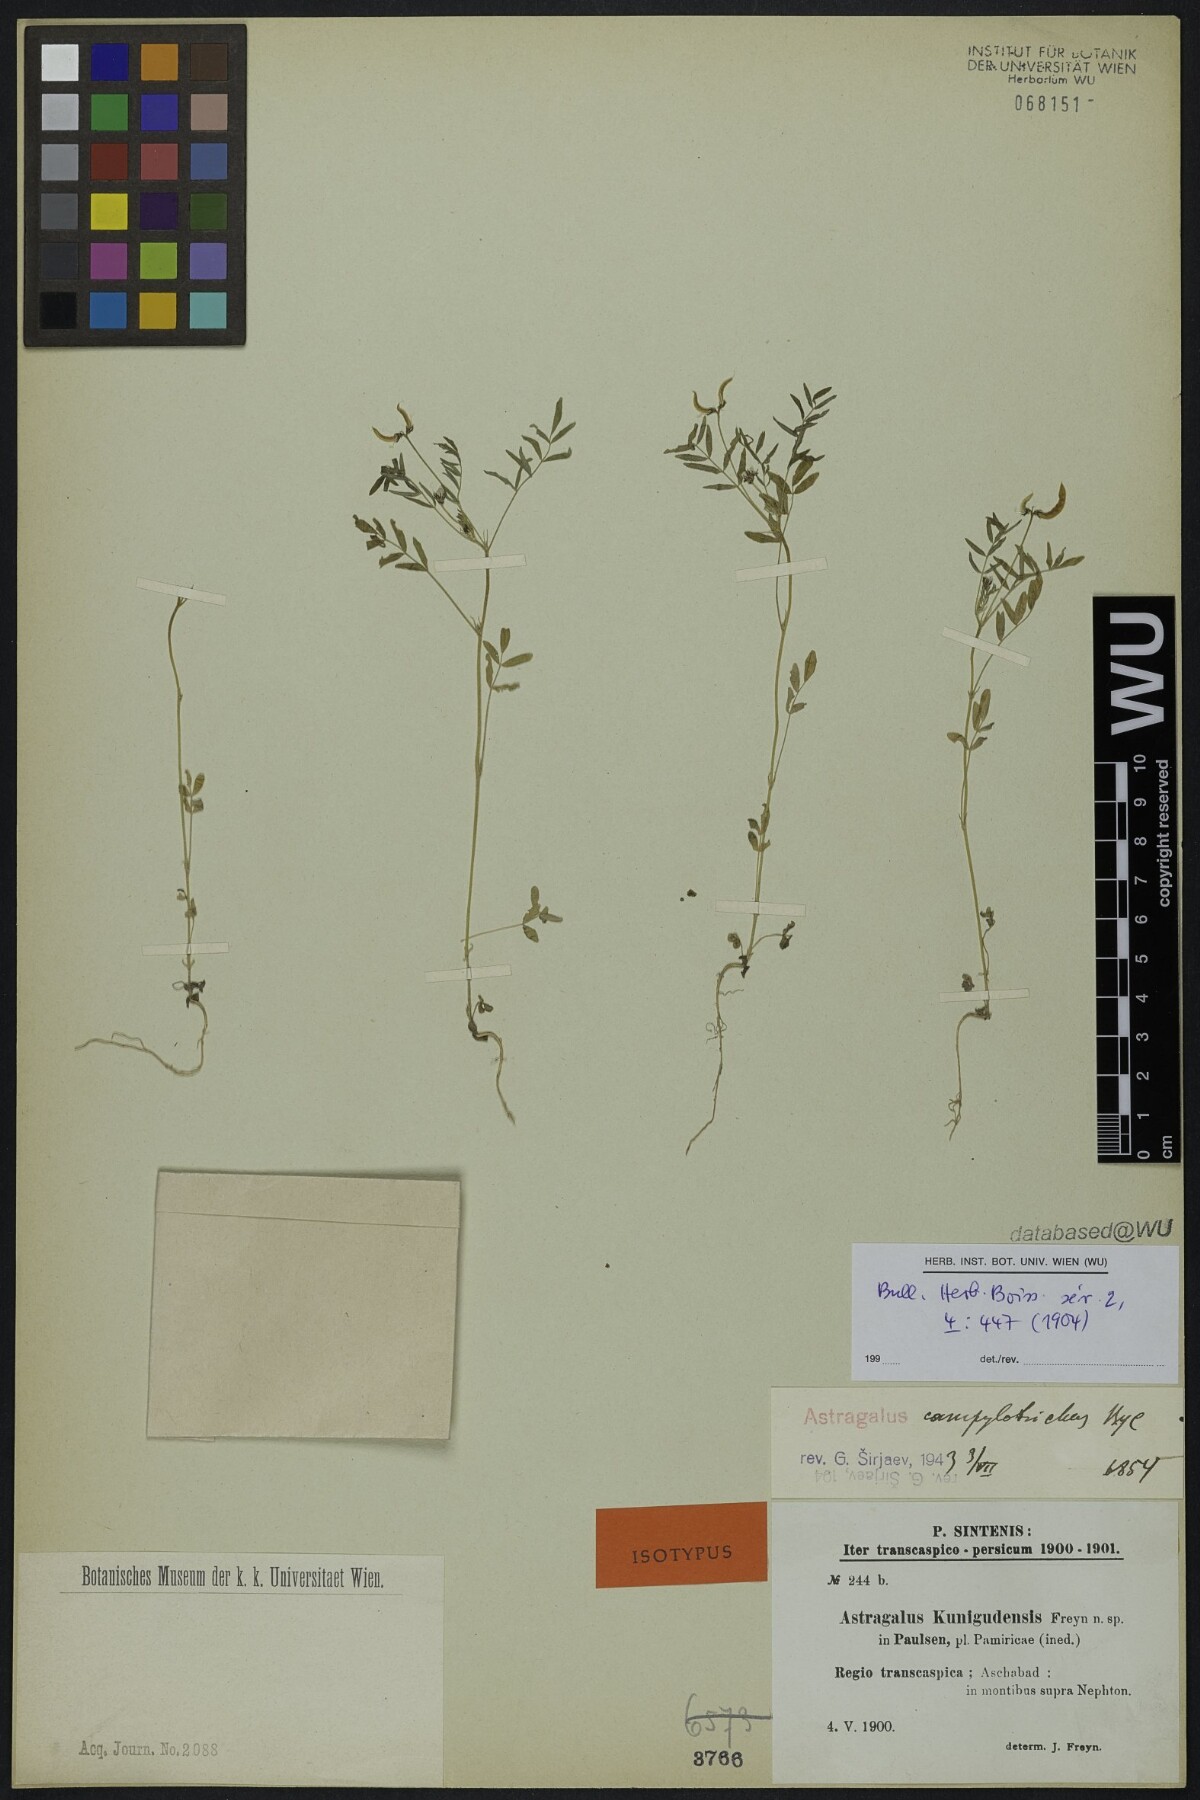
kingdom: Plantae
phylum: Tracheophyta
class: Magnoliopsida
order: Fabales
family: Fabaceae
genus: Astragalus
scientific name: Astragalus campylotrichus
